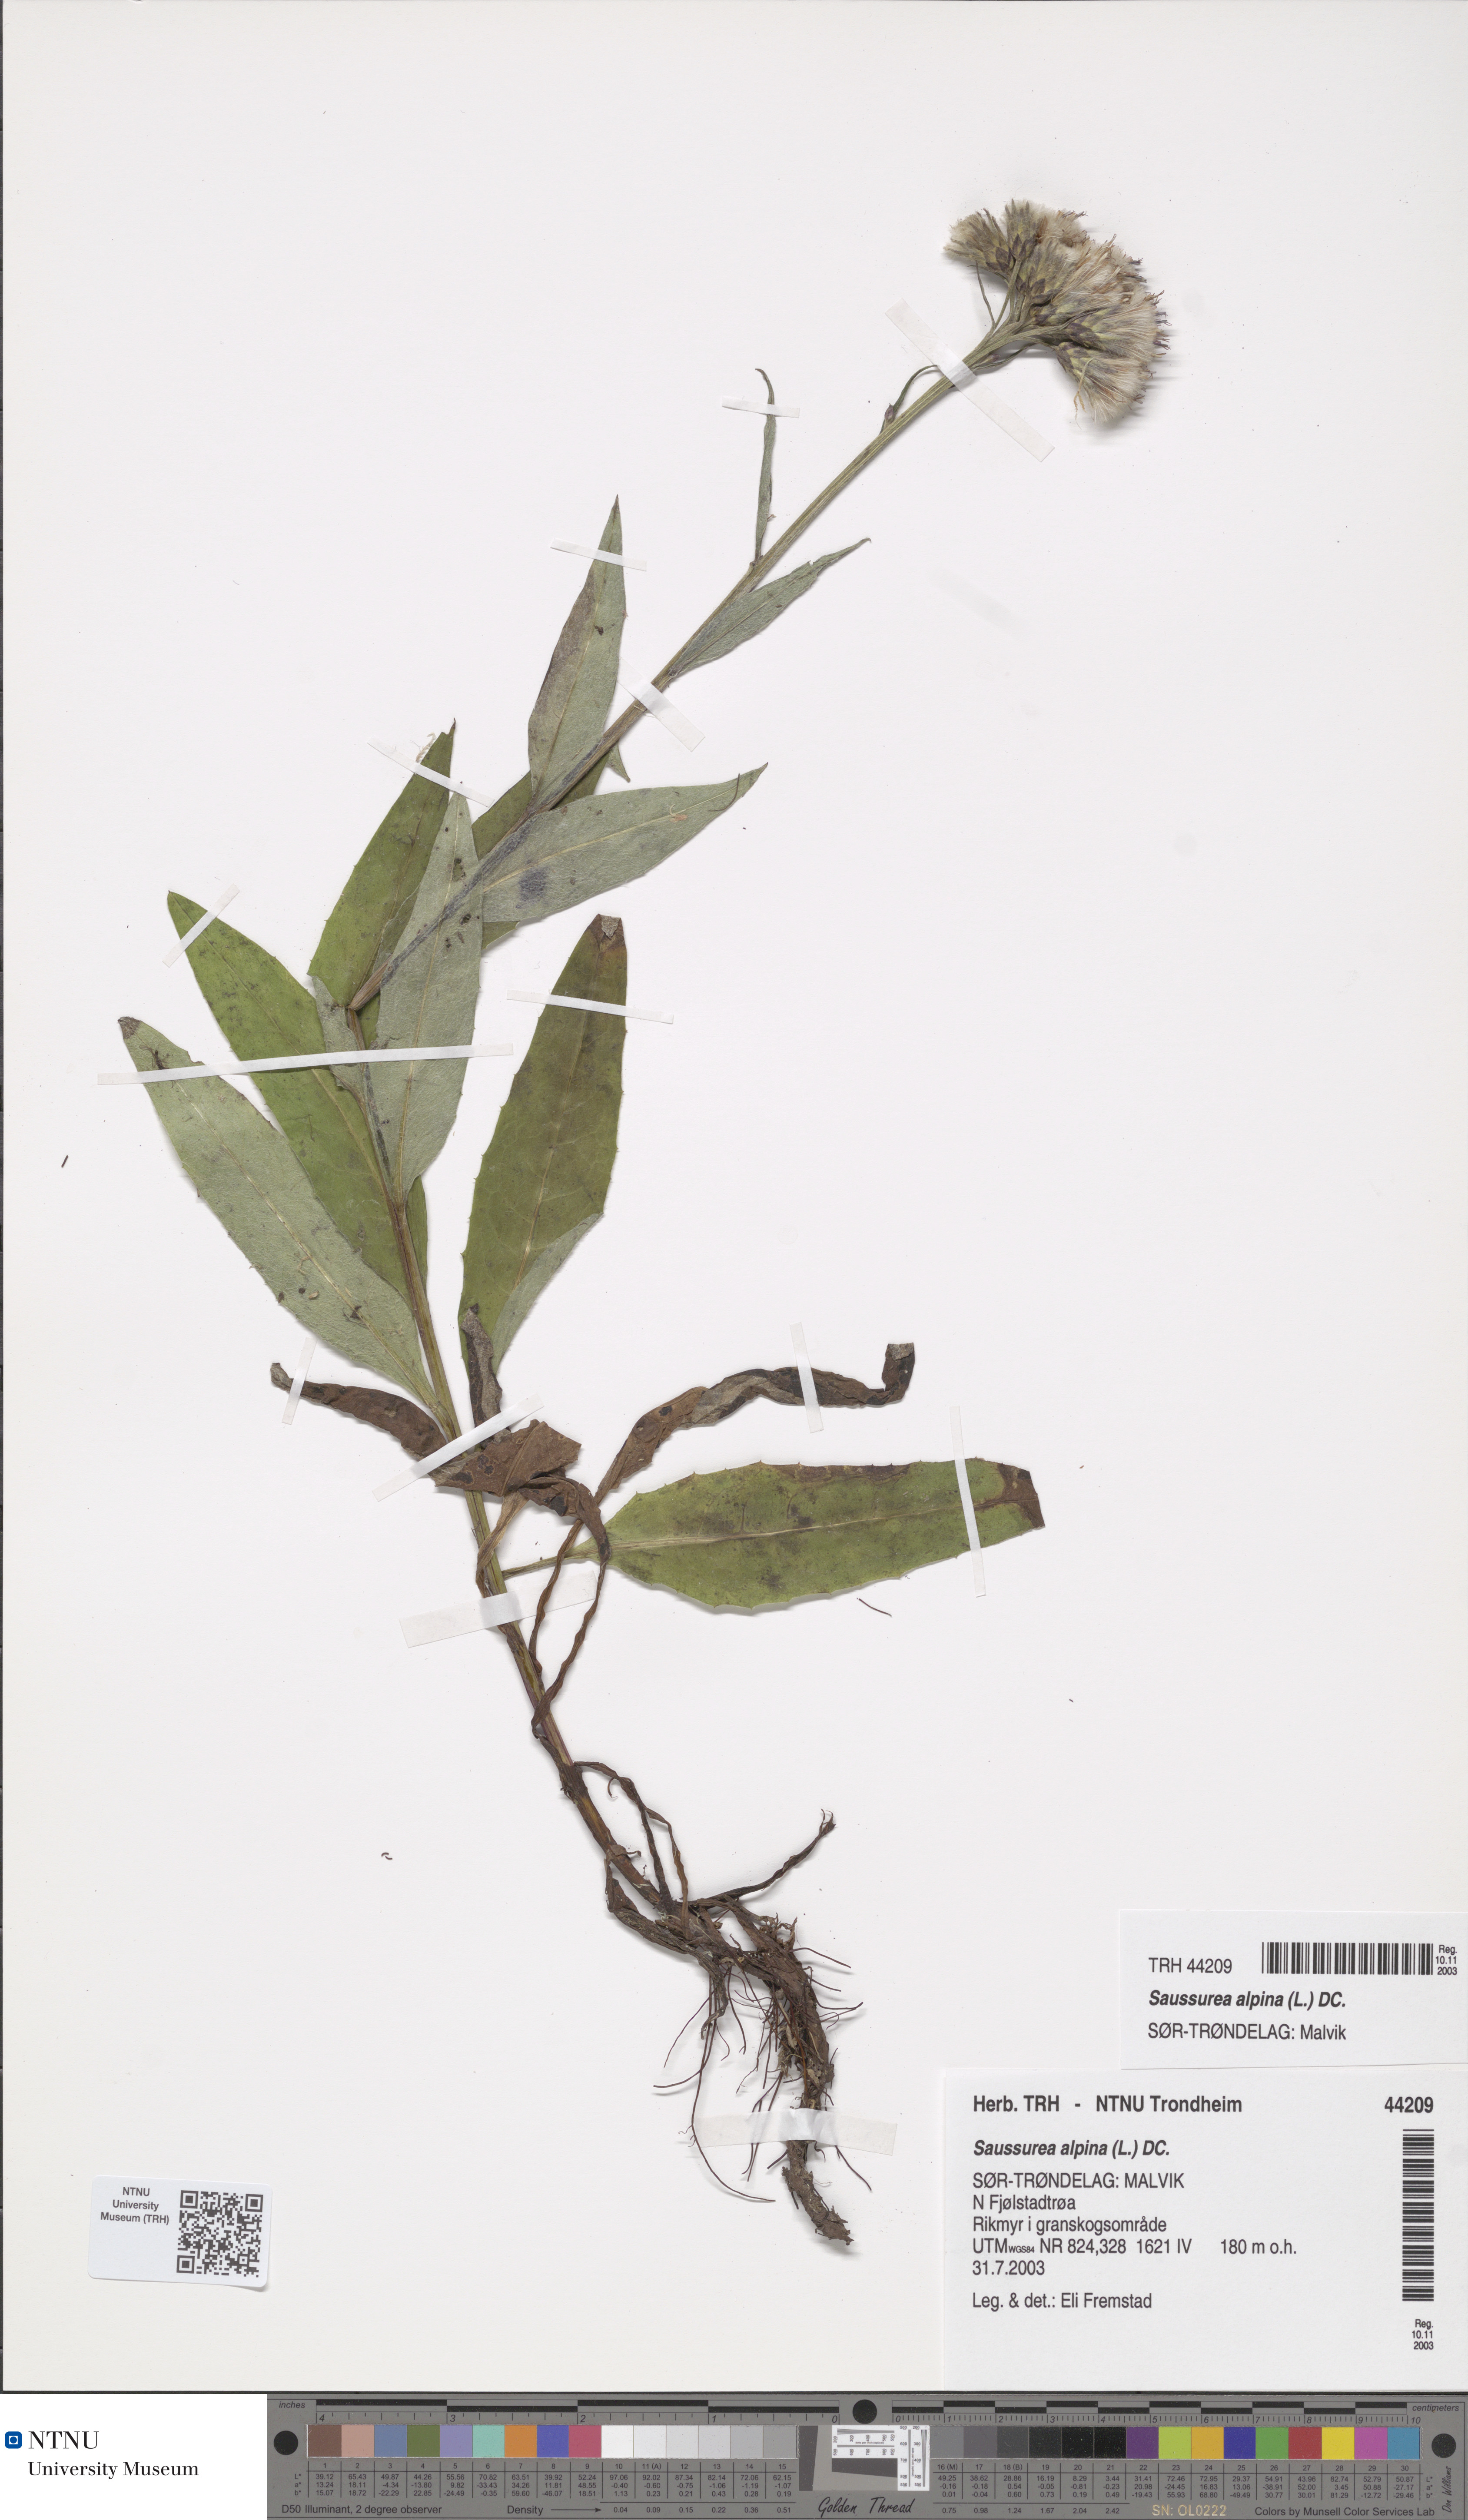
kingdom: Plantae
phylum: Tracheophyta
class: Magnoliopsida
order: Asterales
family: Asteraceae
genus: Saussurea
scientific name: Saussurea alpina
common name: Alpine saw-wort
